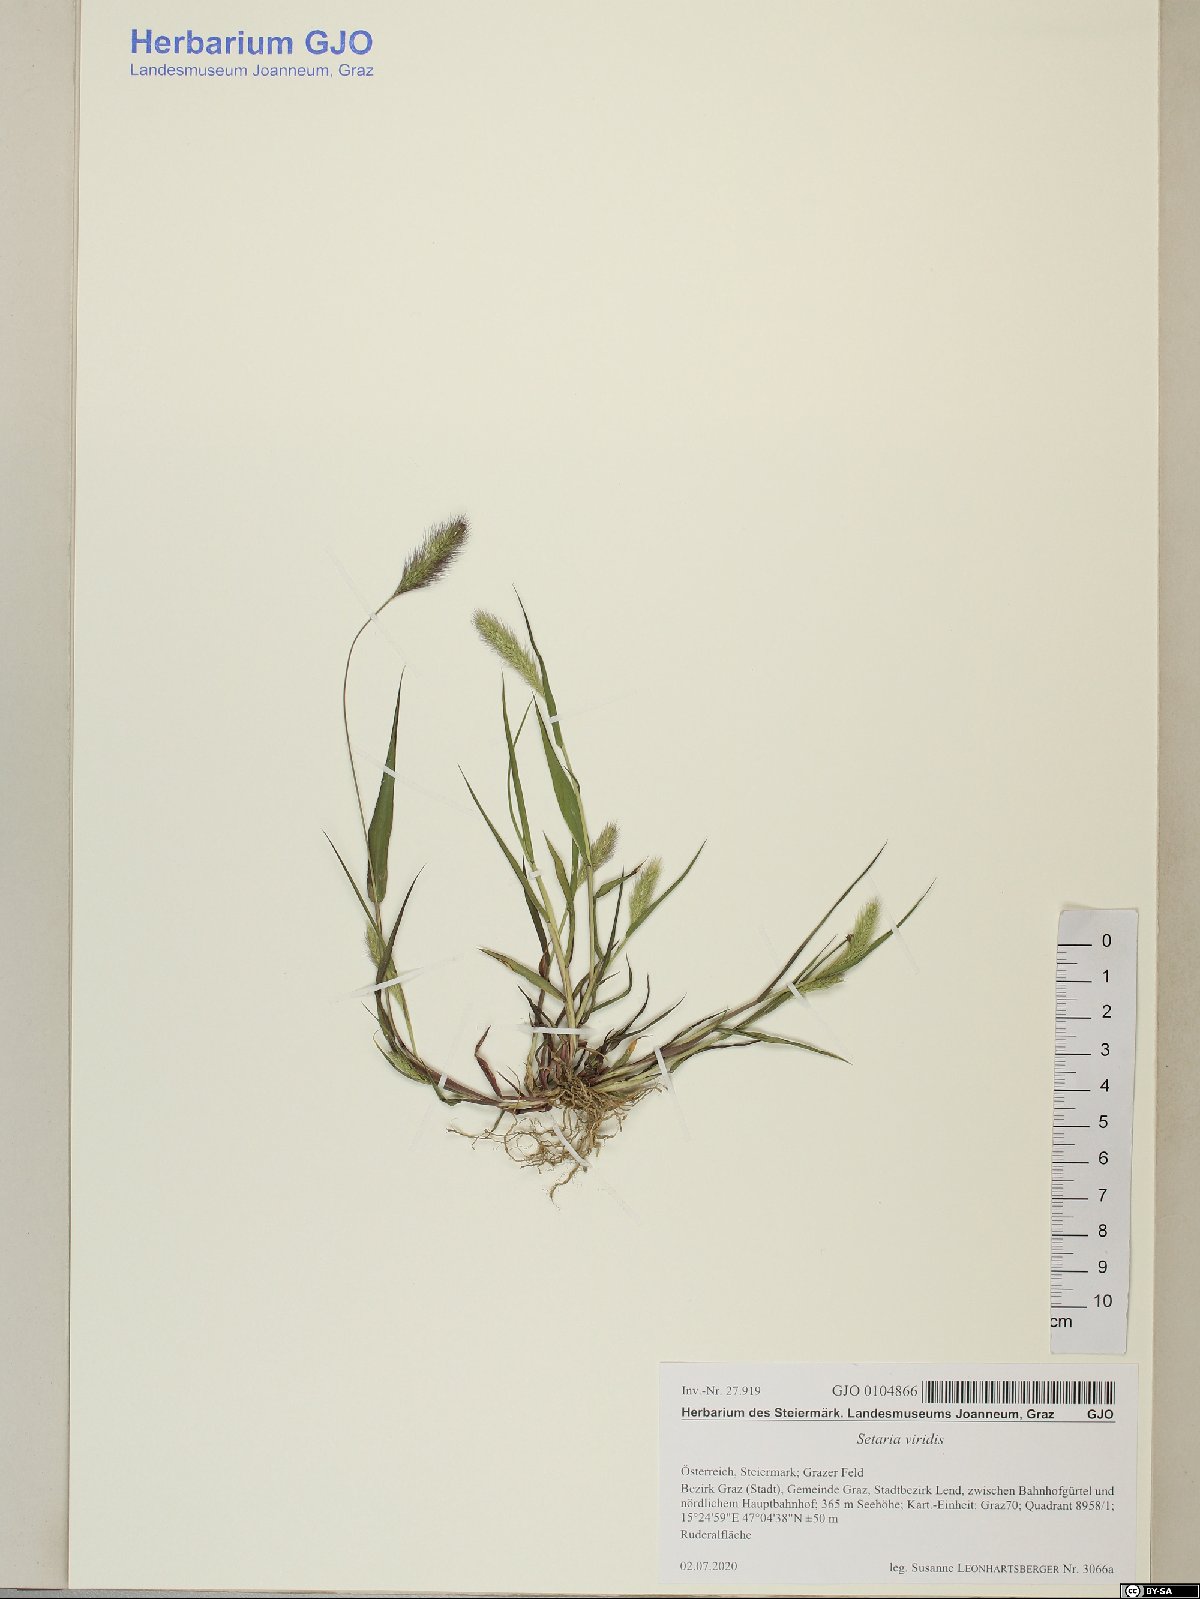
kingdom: Plantae
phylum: Tracheophyta
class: Liliopsida
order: Poales
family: Poaceae
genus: Setaria
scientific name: Setaria viridis
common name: Green bristlegrass
